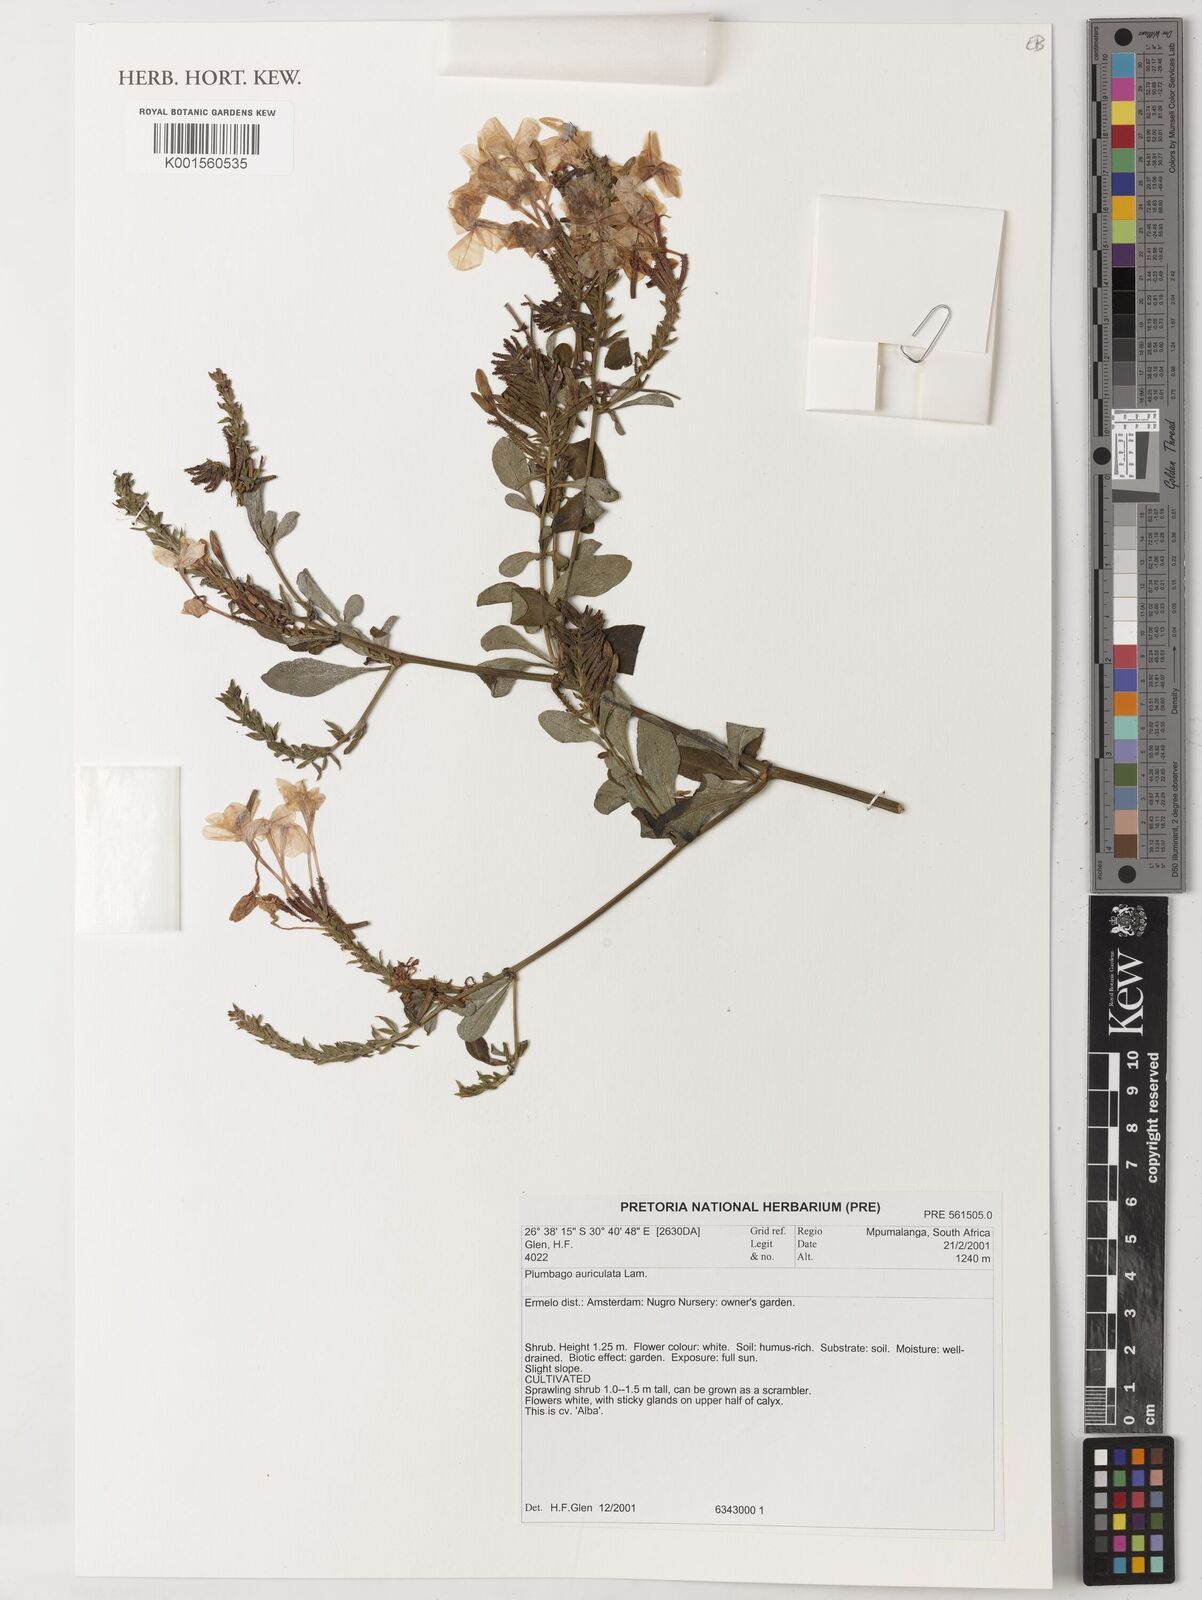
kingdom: Plantae
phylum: Tracheophyta
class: Magnoliopsida
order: Caryophyllales
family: Plumbaginaceae
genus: Plumbago
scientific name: Plumbago auriculata
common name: Cape leadwort
